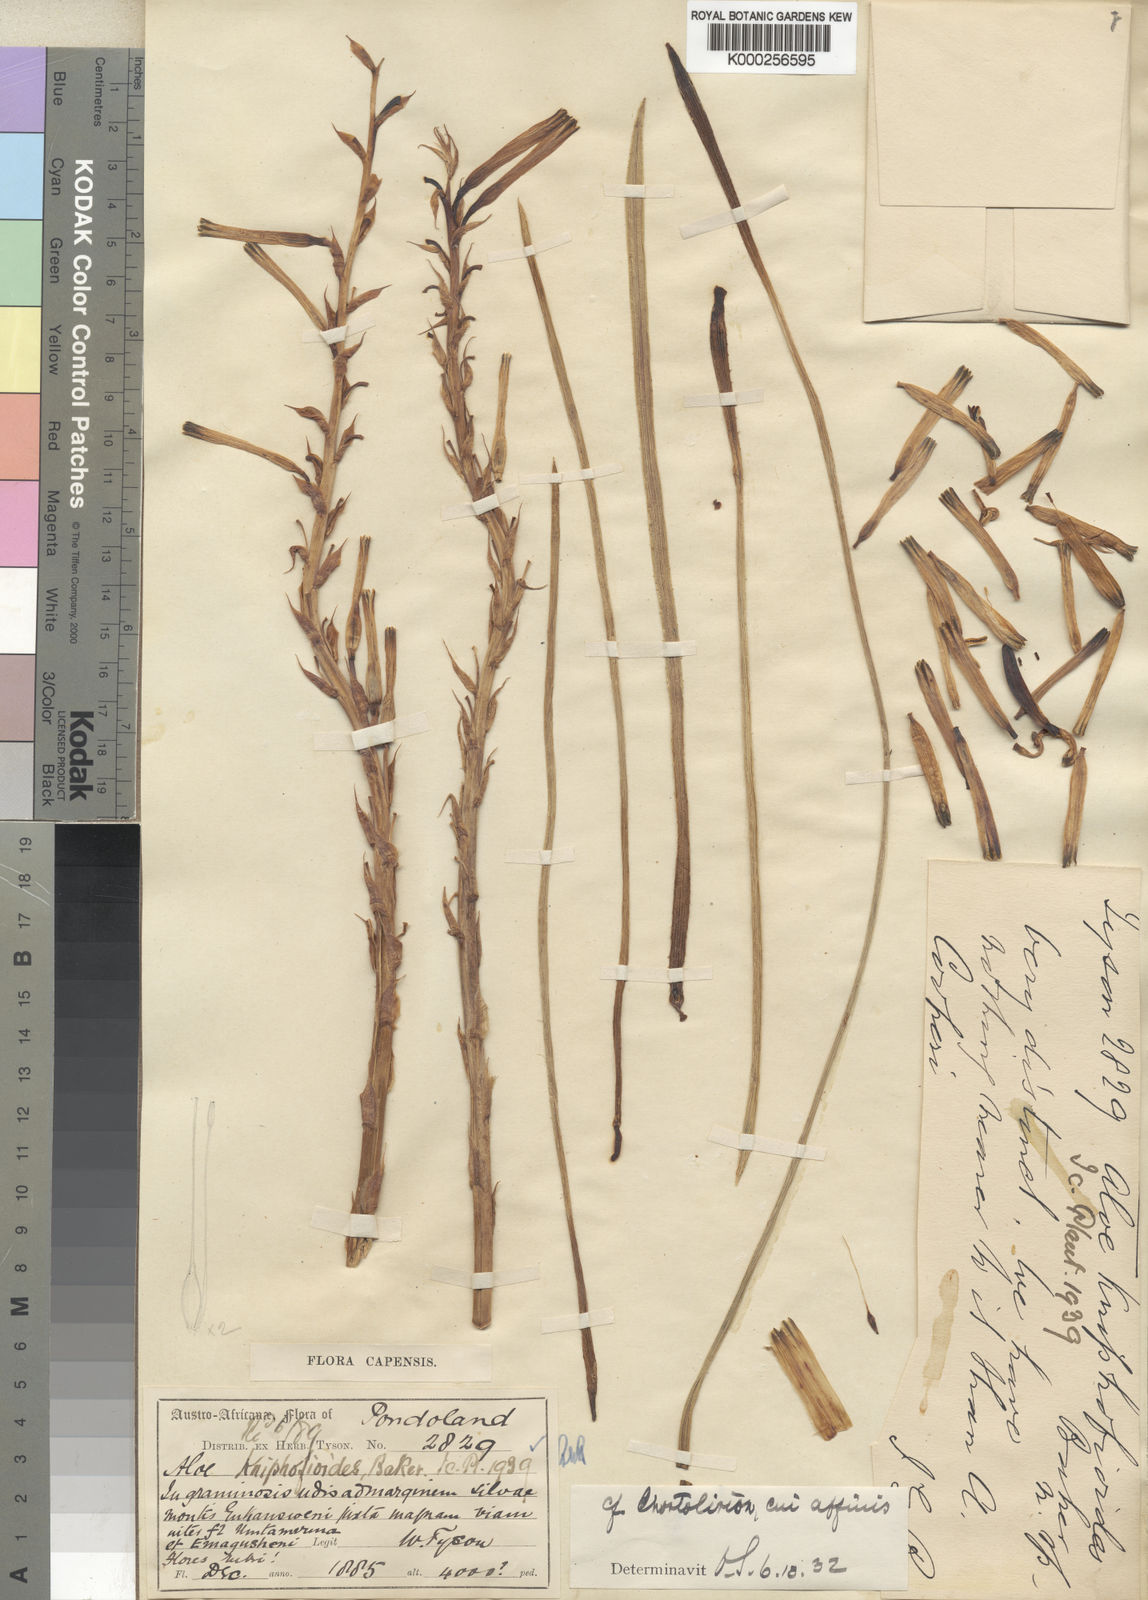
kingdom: Plantae
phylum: Tracheophyta
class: Liliopsida
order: Asparagales
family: Asphodelaceae
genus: Aloe
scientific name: Aloe kniphofioides
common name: Grass aloe
